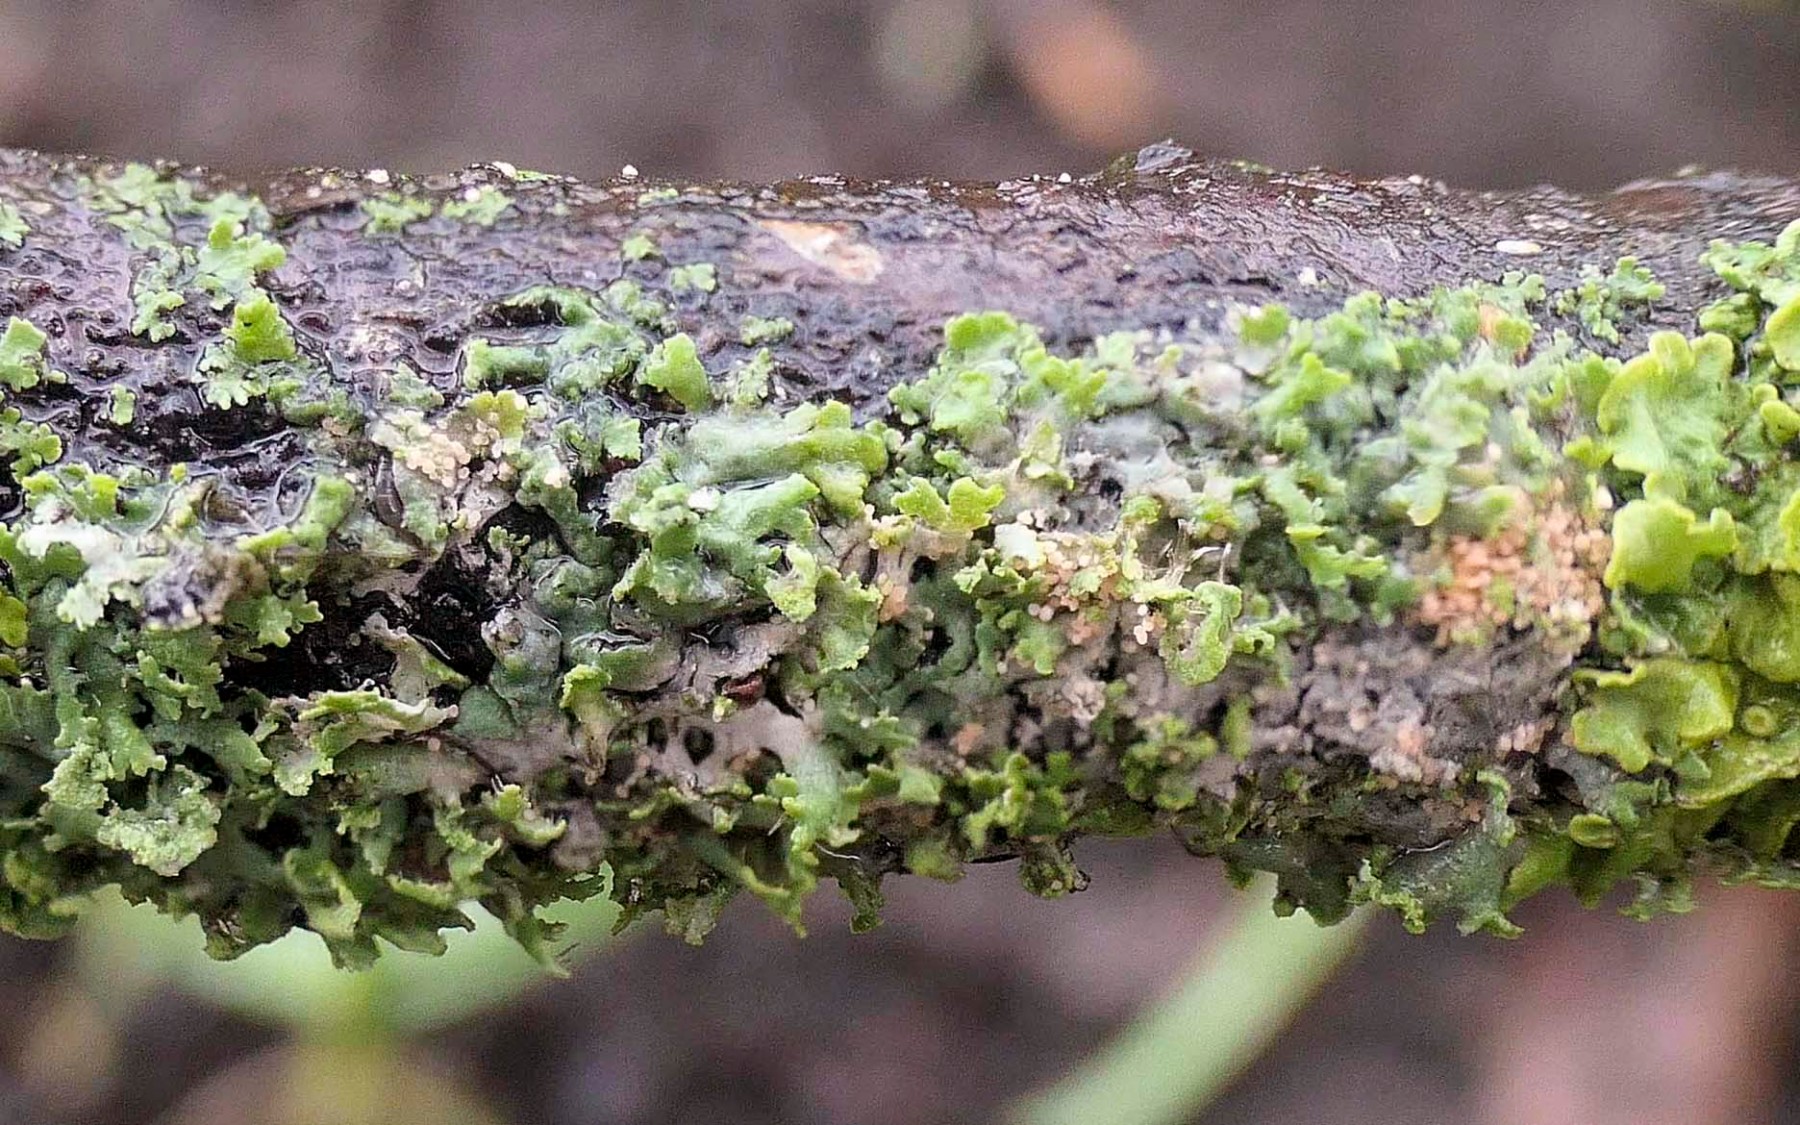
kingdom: Fungi
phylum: Basidiomycota
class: Agaricomycetes
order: Corticiales
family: Corticiaceae
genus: Erythricium
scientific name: Erythricium aurantiacum
